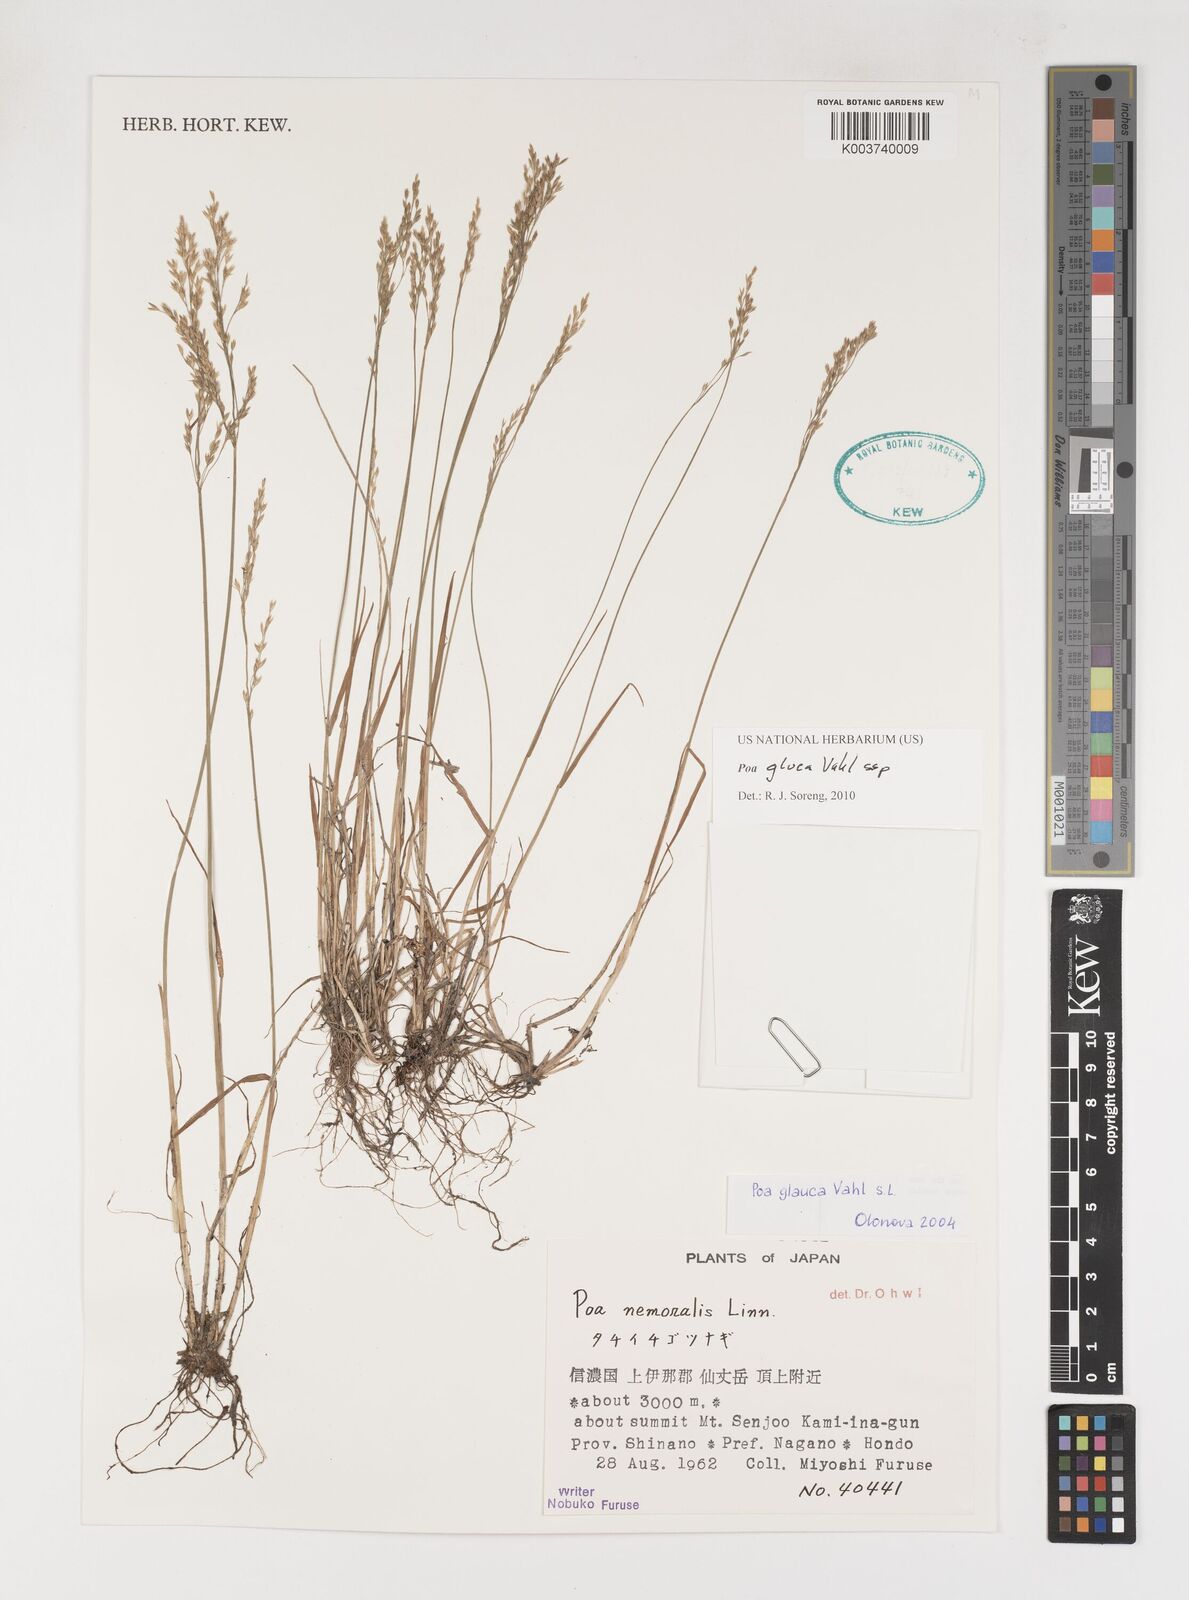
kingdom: Plantae
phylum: Tracheophyta
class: Liliopsida
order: Poales
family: Poaceae
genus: Poa
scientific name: Poa glauca
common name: Glaucous bluegrass
